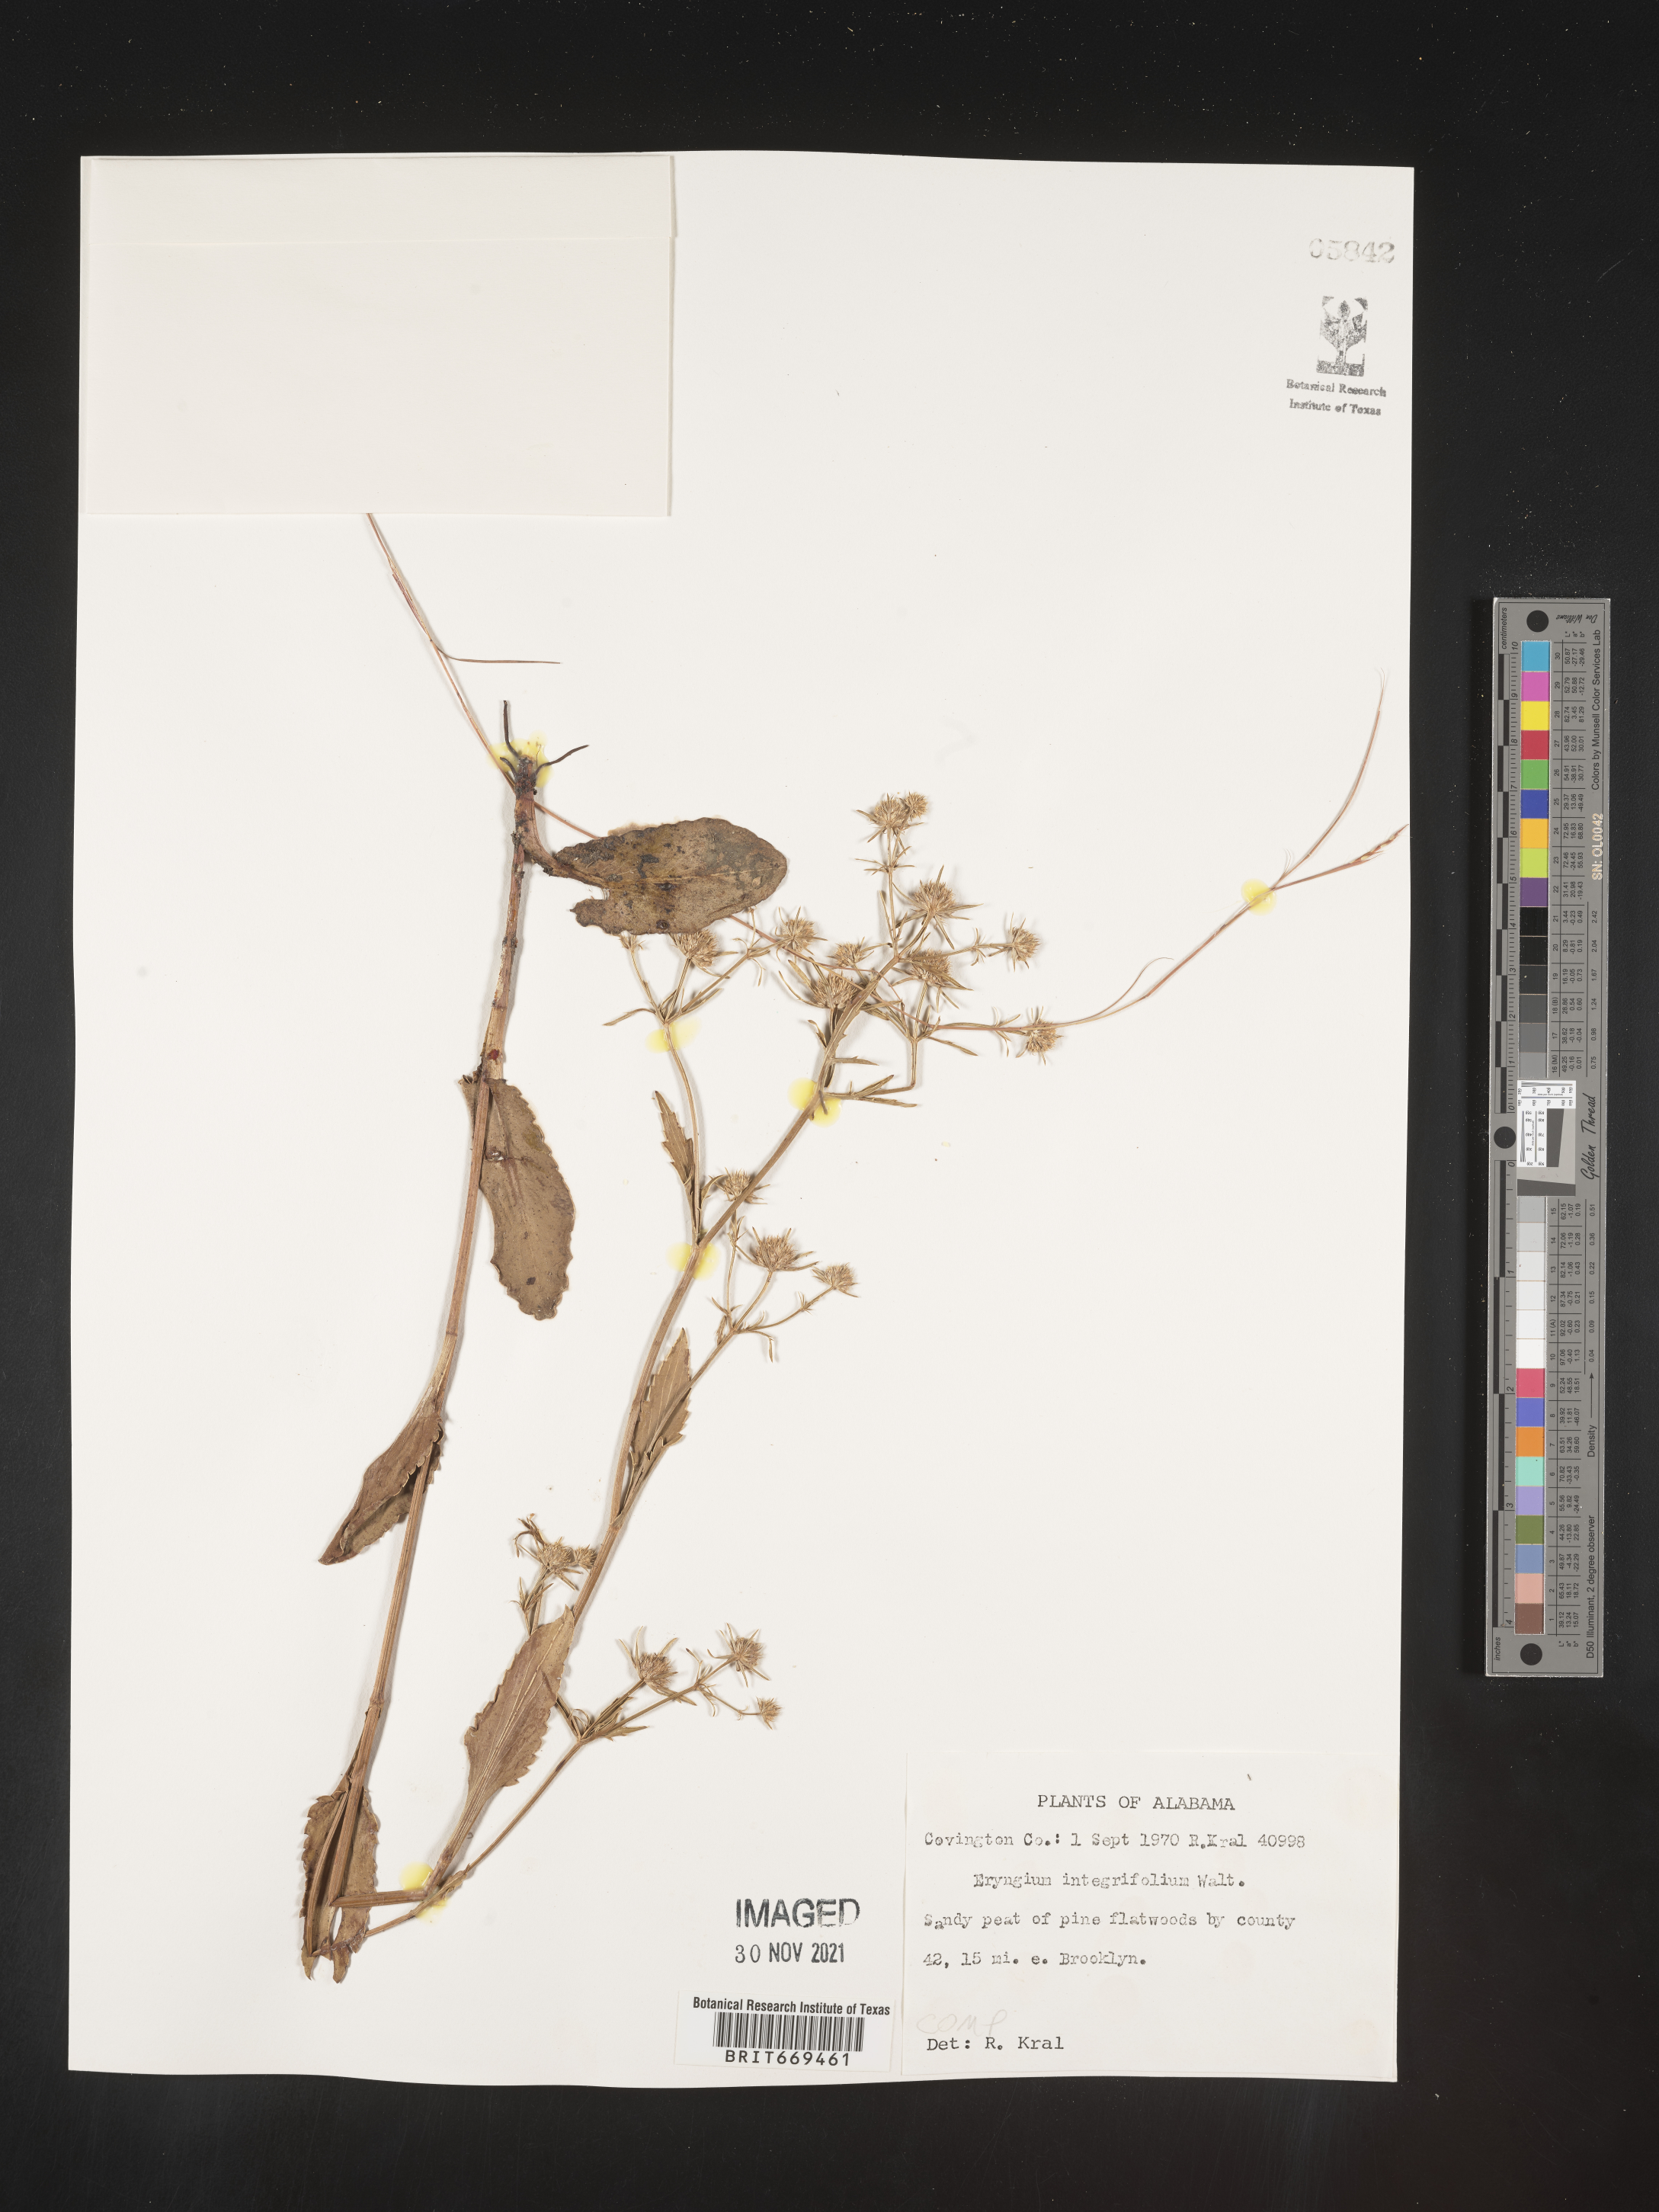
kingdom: Plantae
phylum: Tracheophyta
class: Magnoliopsida
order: Apiales
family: Apiaceae
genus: Eryngium
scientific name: Eryngium integrifolium
